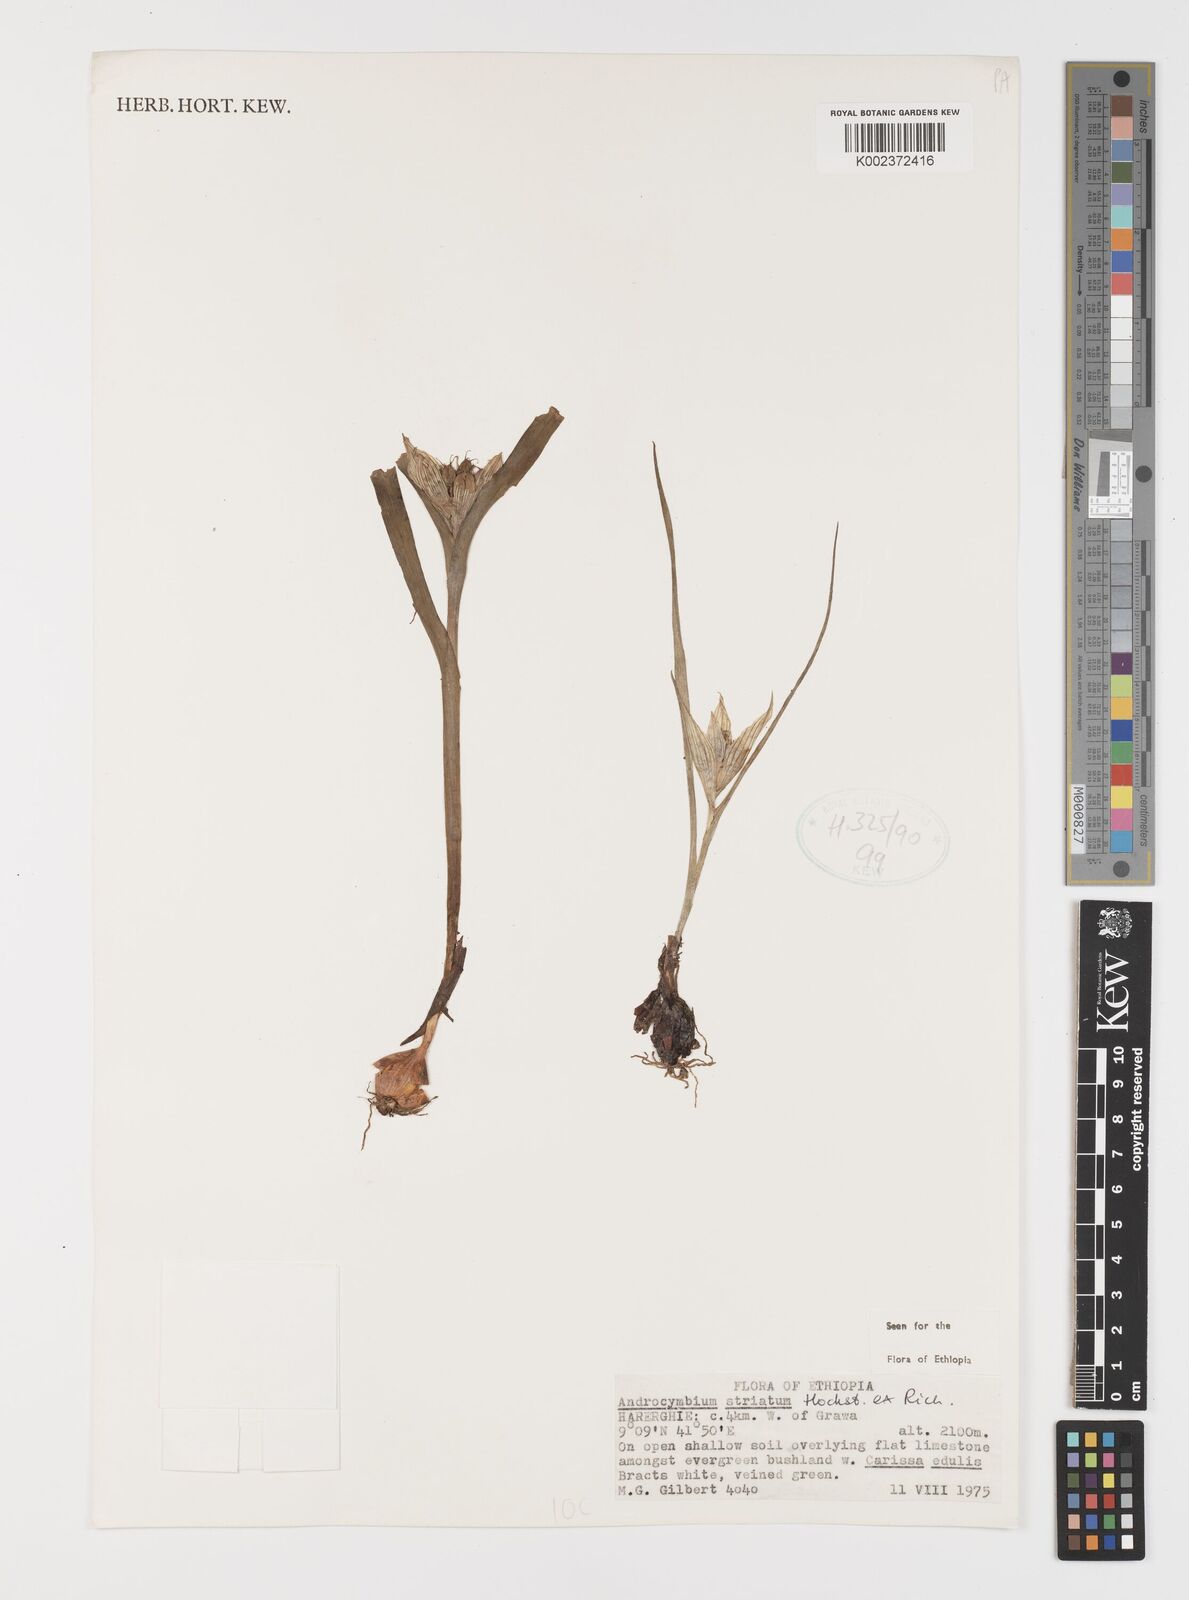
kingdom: Plantae
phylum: Tracheophyta
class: Liliopsida
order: Liliales
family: Colchicaceae
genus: Colchicum
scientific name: Colchicum striatum
